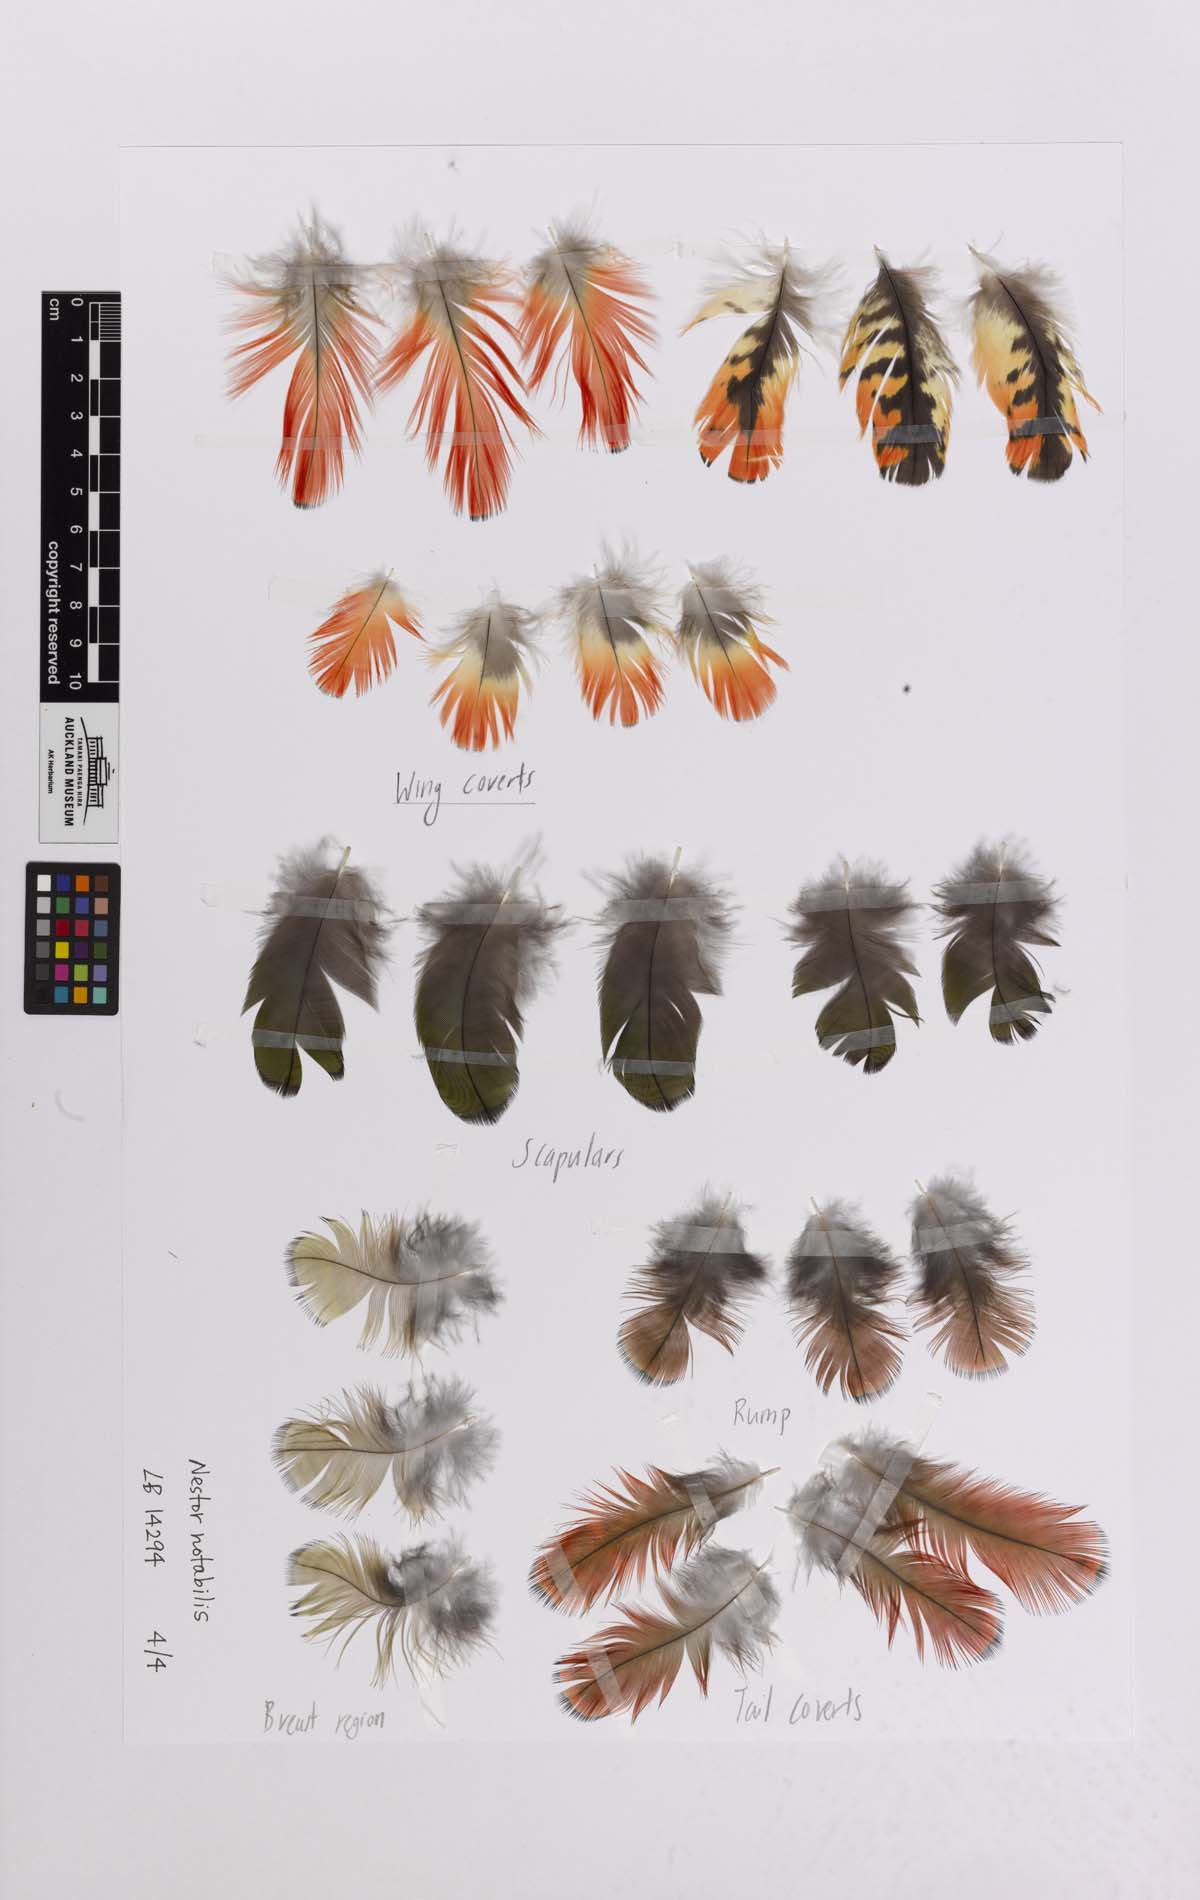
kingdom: Animalia
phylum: Chordata
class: Aves
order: Psittaciformes
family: Psittacidae
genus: Nestor
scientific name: Nestor notabilis
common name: Kea
